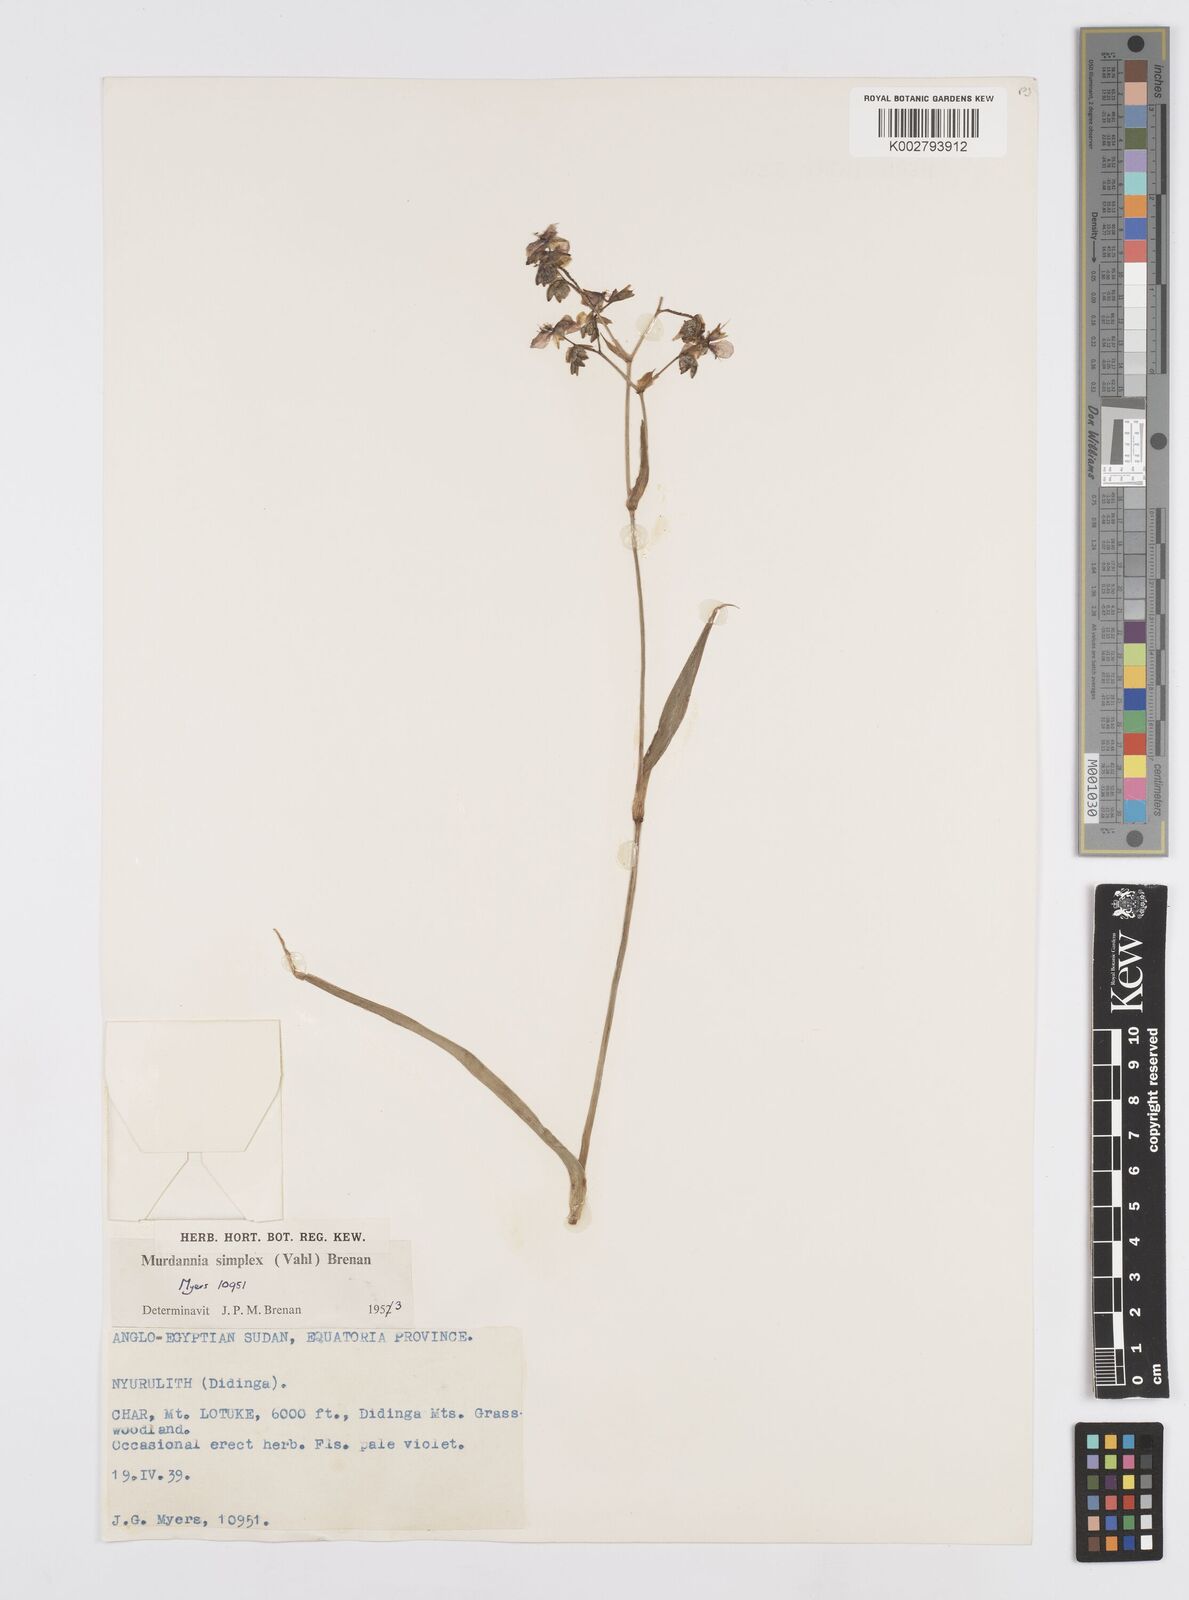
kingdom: Plantae
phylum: Tracheophyta
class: Liliopsida
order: Commelinales
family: Commelinaceae
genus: Murdannia
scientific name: Murdannia simplex
